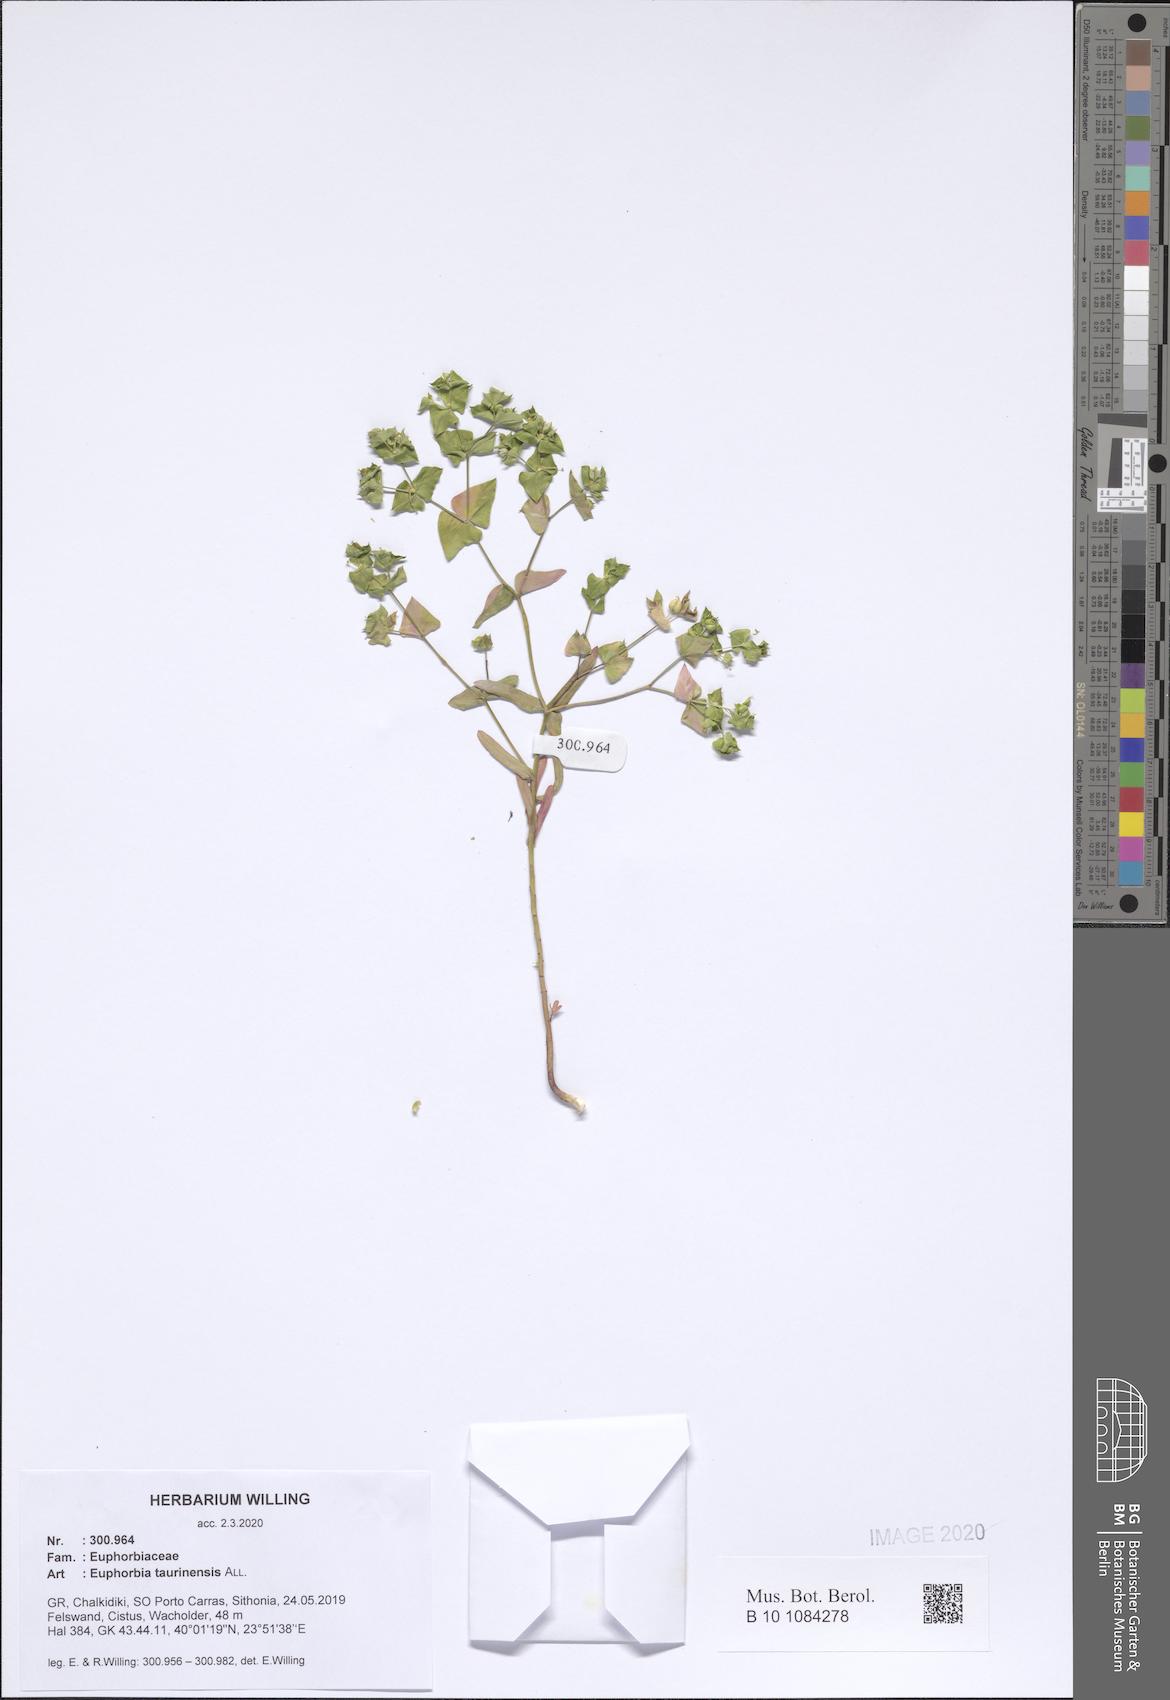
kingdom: Plantae
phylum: Tracheophyta
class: Magnoliopsida
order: Malpighiales
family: Euphorbiaceae
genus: Euphorbia
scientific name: Euphorbia taurinensis
